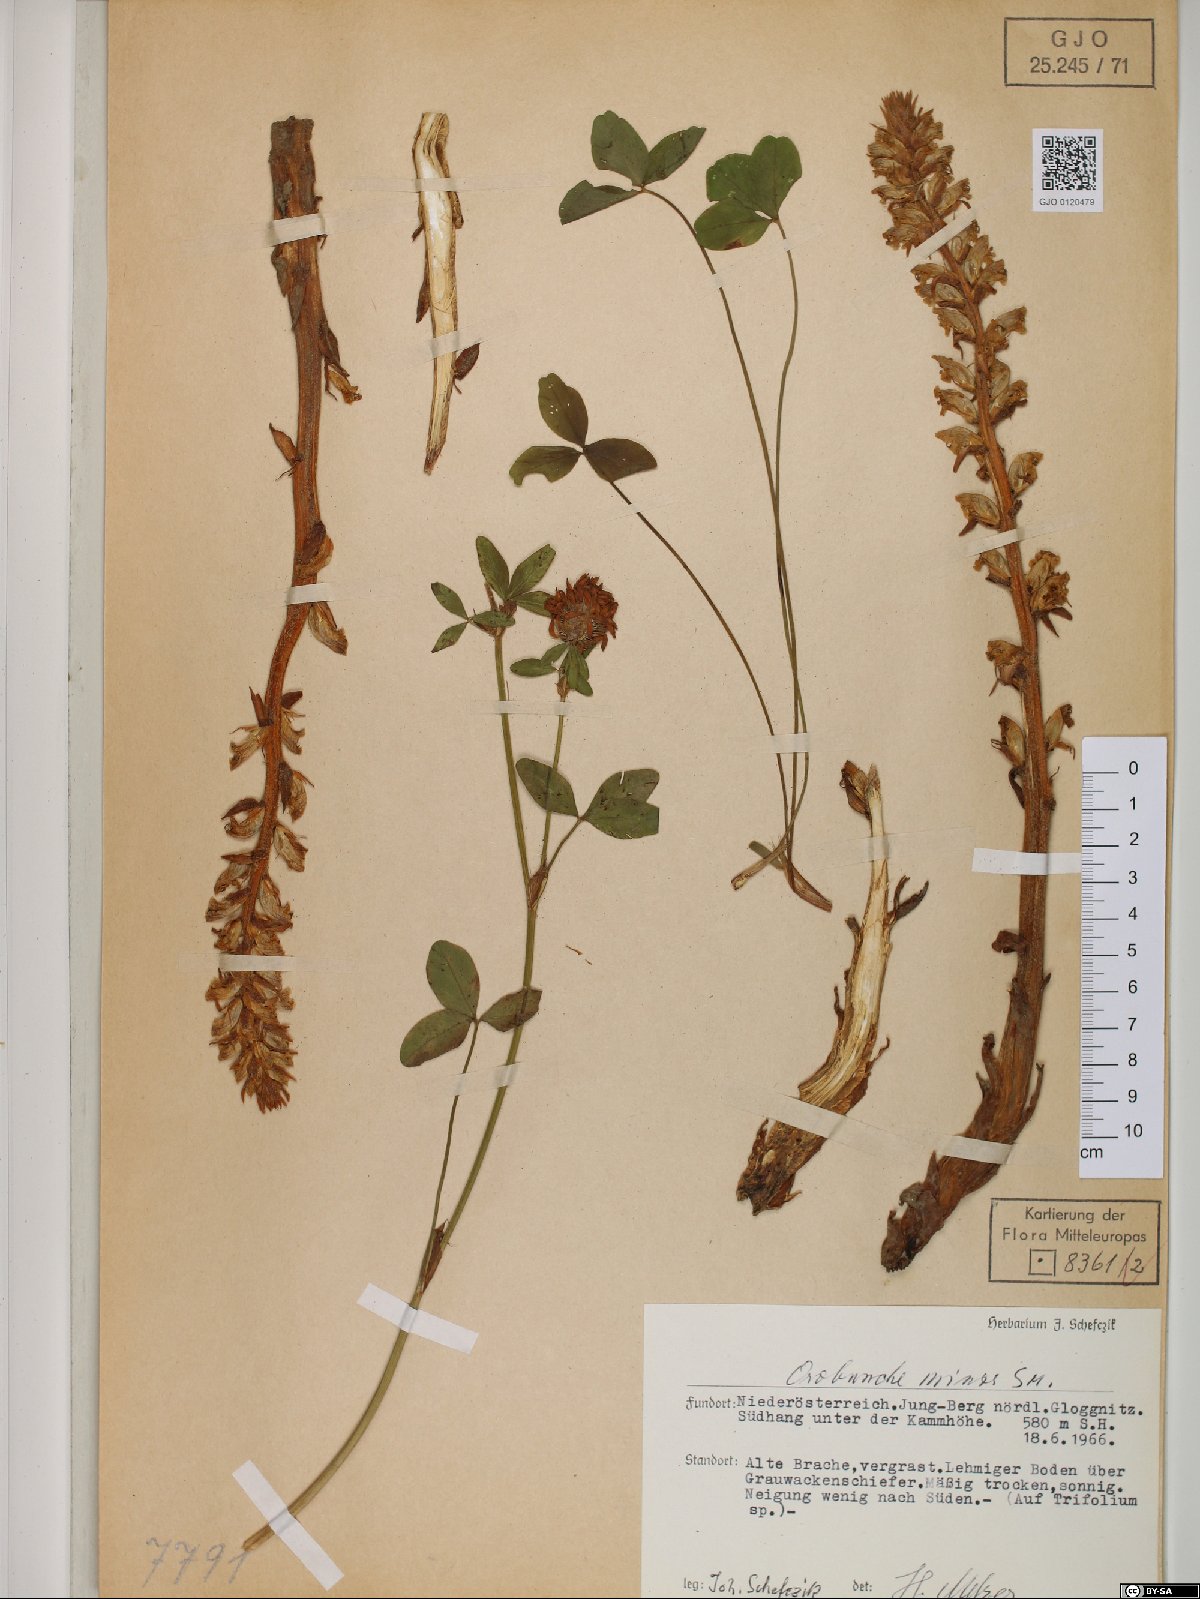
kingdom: Plantae
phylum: Tracheophyta
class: Magnoliopsida
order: Lamiales
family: Orobanchaceae
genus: Orobanche
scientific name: Orobanche minor
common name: Common broomrape
